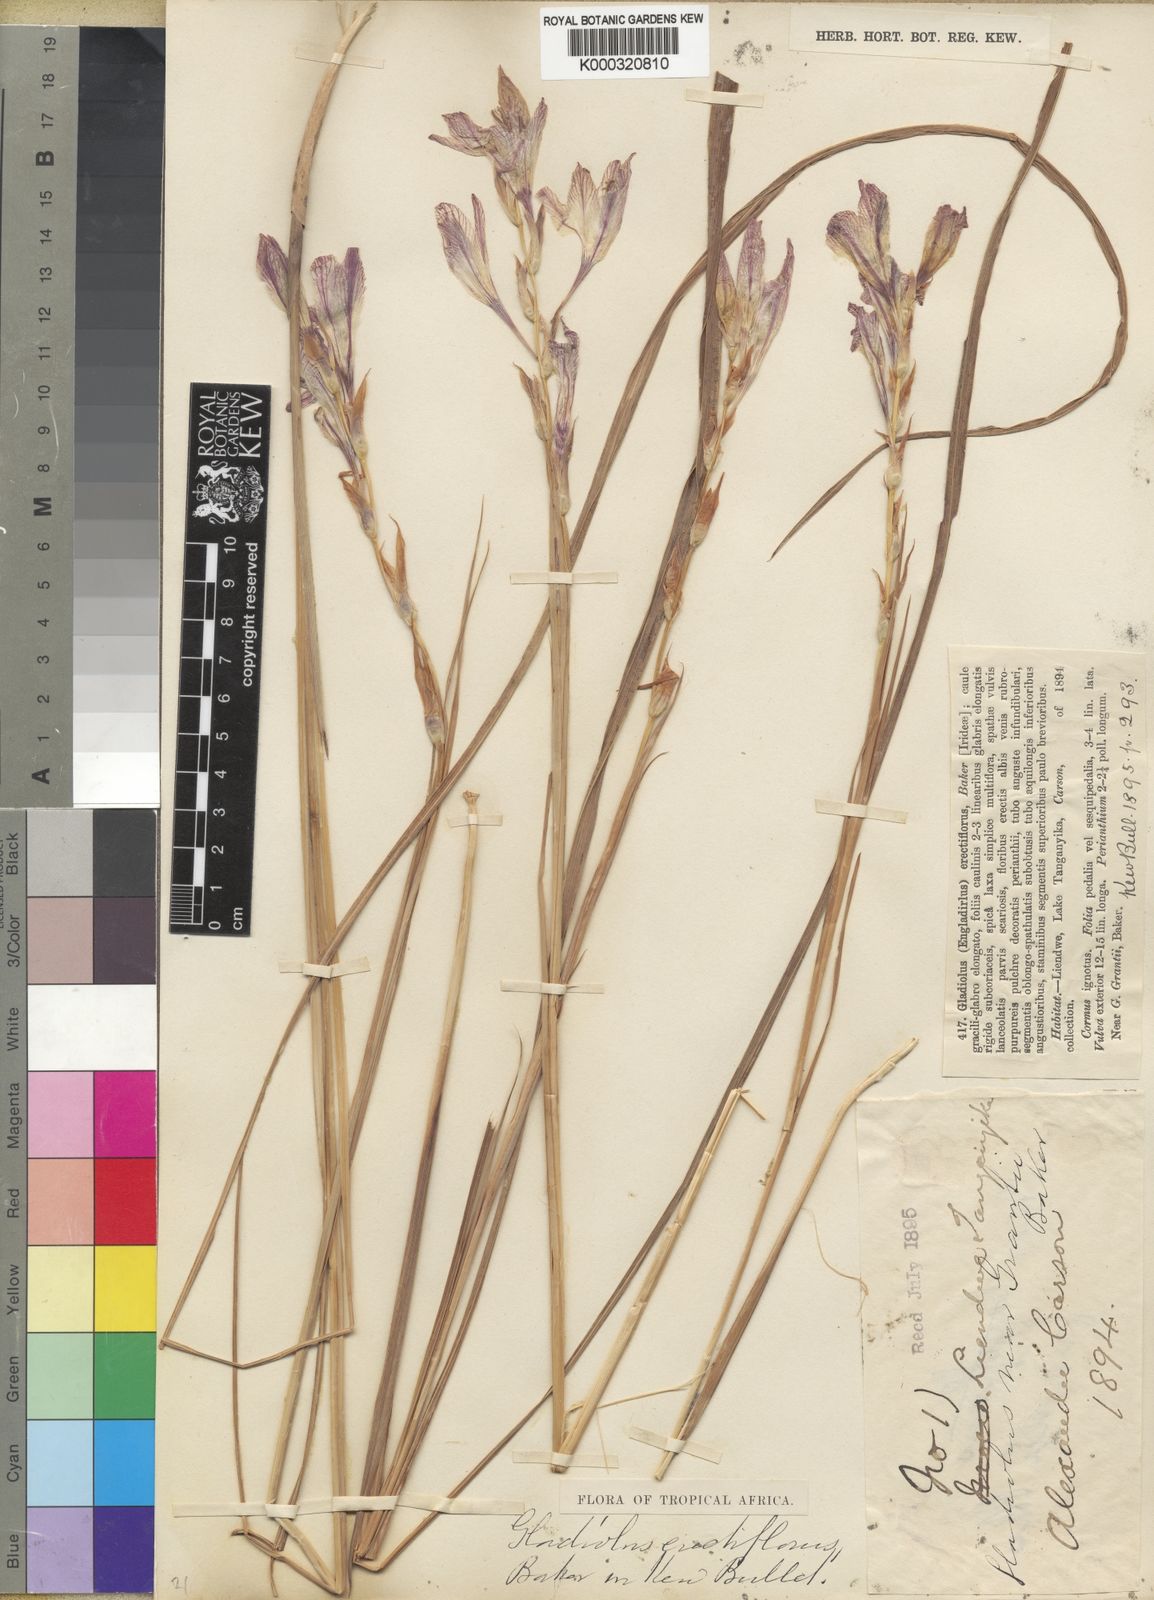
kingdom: Plantae
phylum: Tracheophyta
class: Liliopsida
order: Asparagales
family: Iridaceae
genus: Gladiolus
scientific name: Gladiolus erectiflorus
